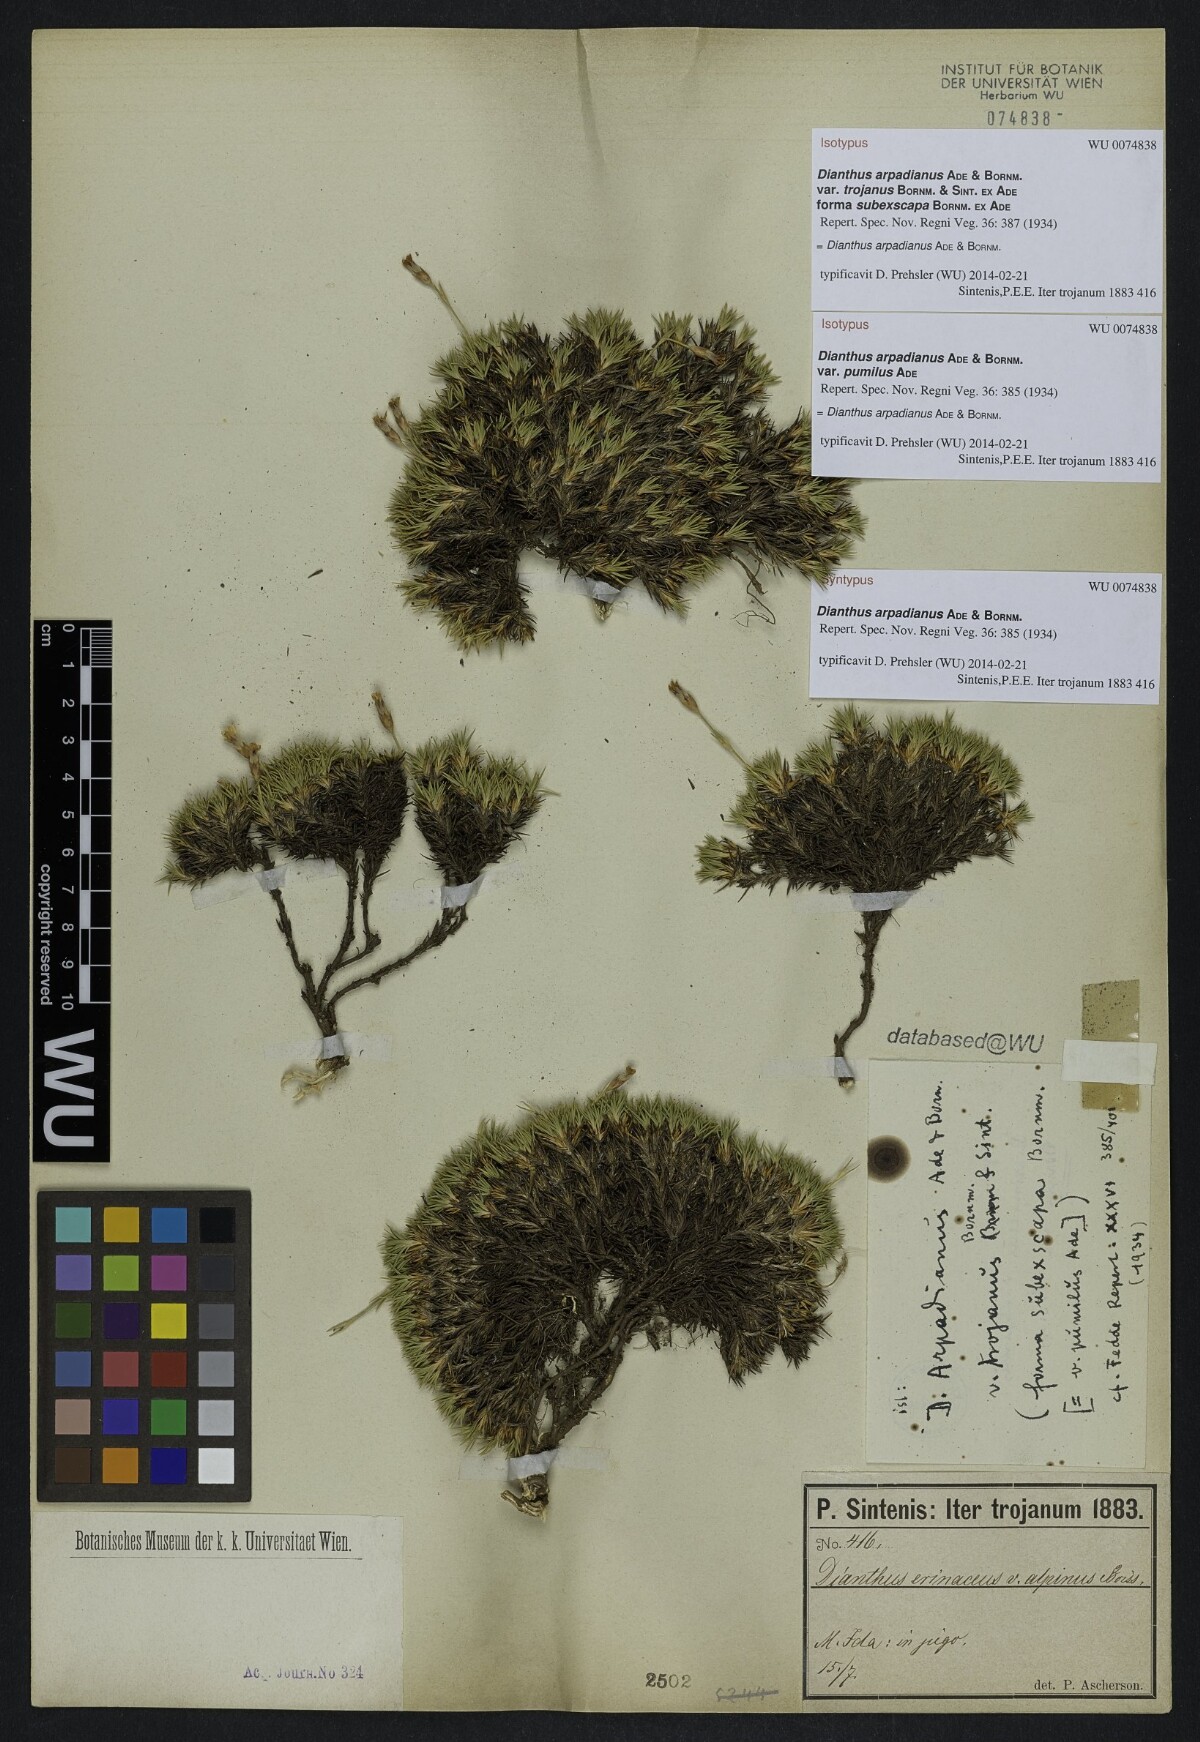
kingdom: Plantae
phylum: Tracheophyta
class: Magnoliopsida
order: Caryophyllales
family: Caryophyllaceae
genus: Dianthus
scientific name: Dianthus arpadianus
